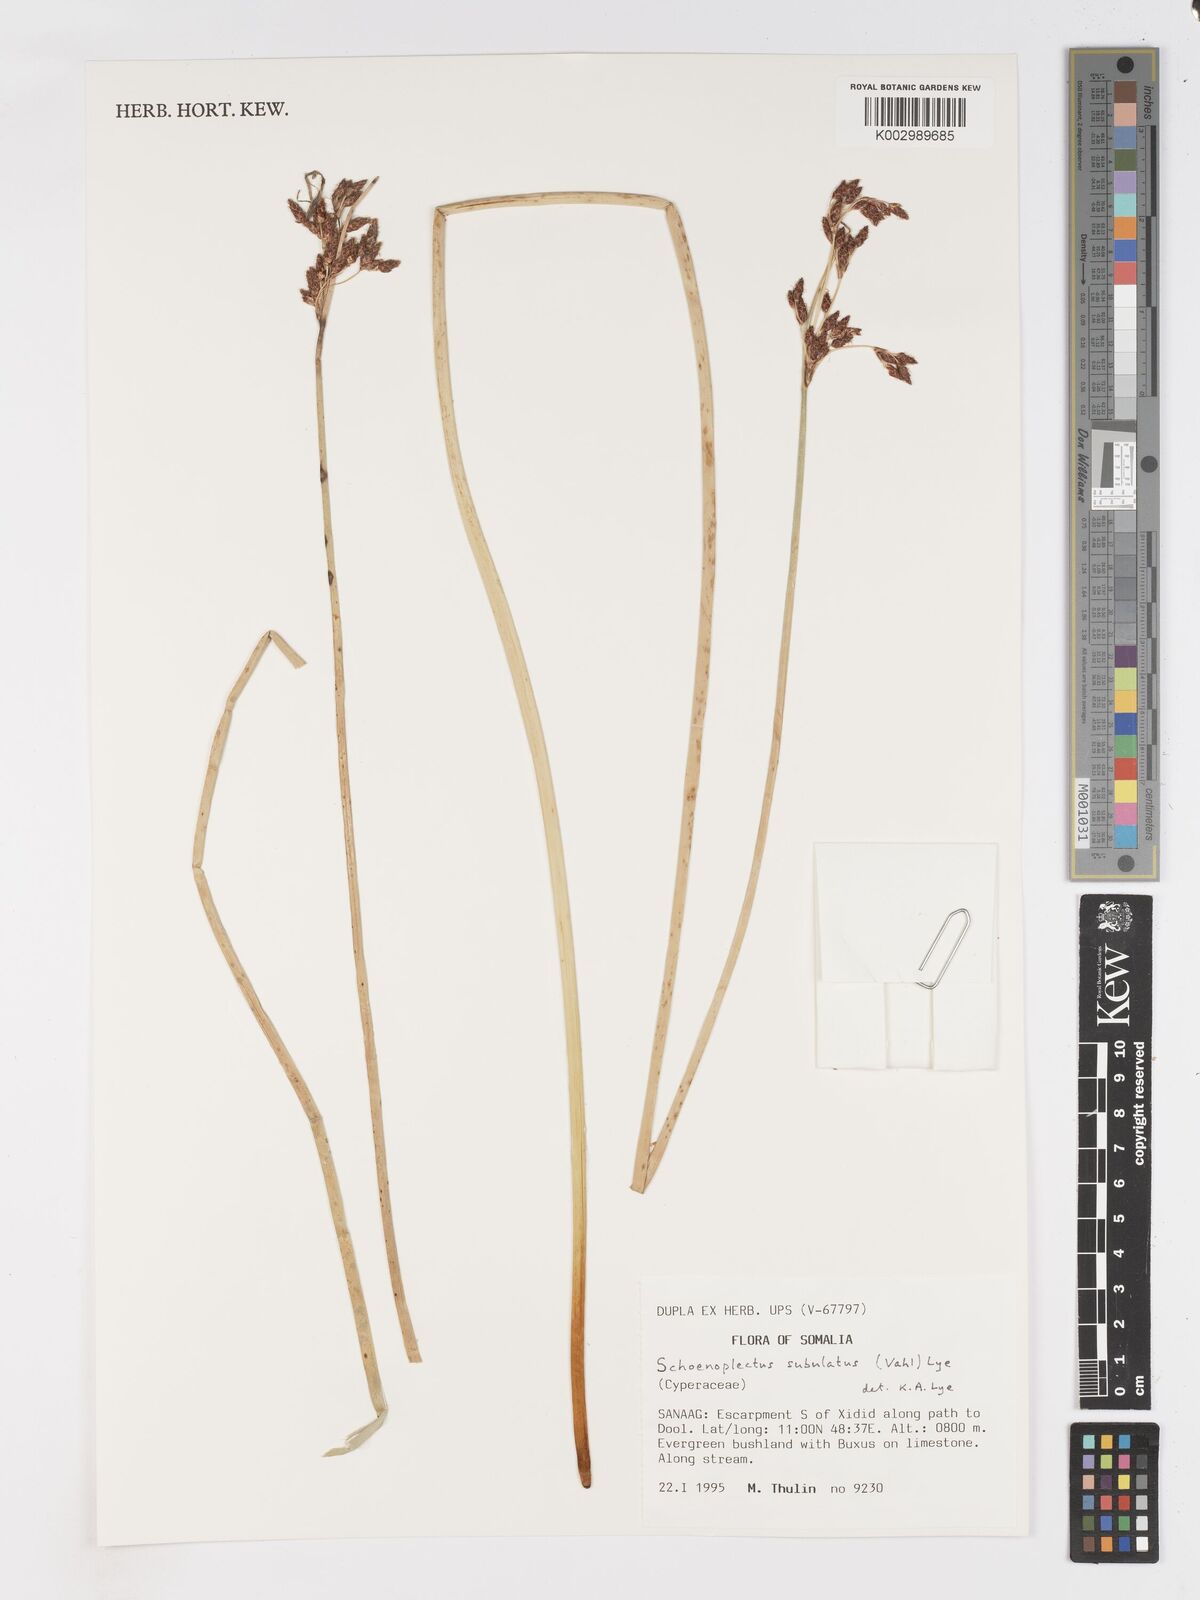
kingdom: Plantae
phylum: Tracheophyta
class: Liliopsida
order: Poales
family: Cyperaceae
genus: Schoenoplectus
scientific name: Schoenoplectus subulatus
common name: Coast club-rush
